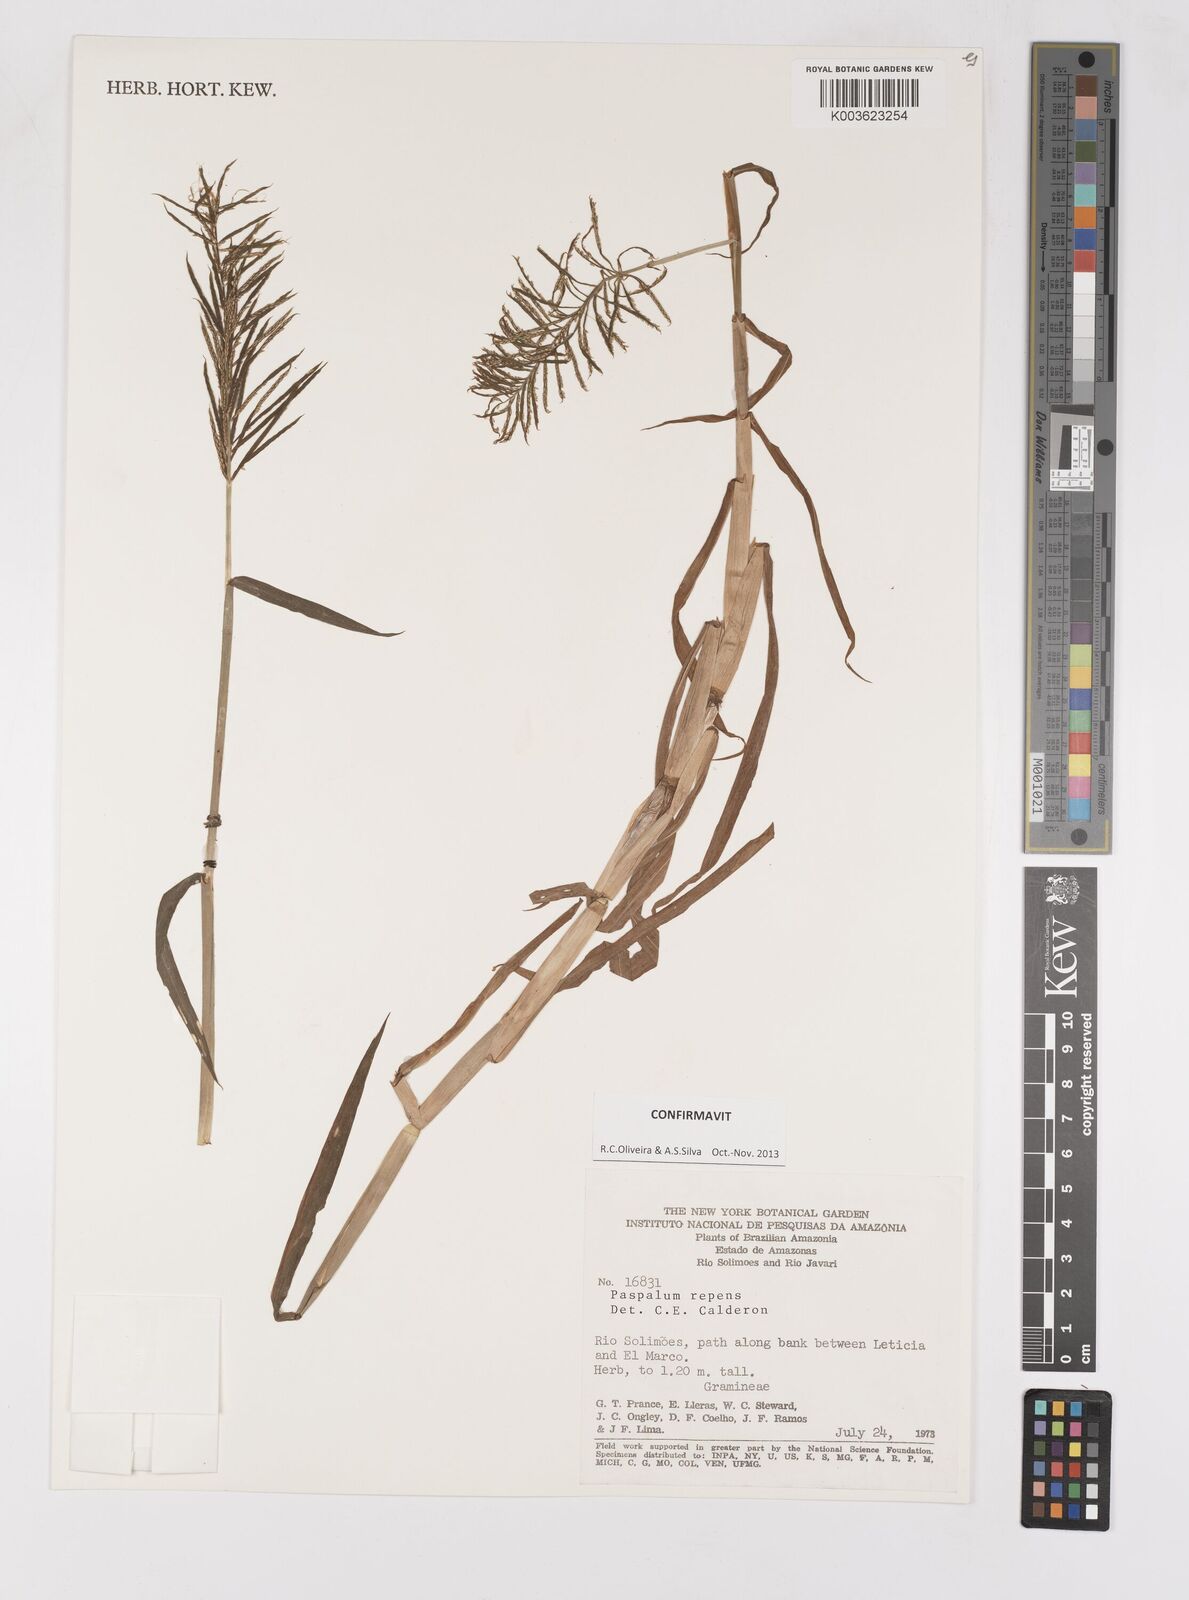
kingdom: Plantae
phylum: Tracheophyta
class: Liliopsida
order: Poales
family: Poaceae
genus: Paspalum
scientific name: Paspalum repens
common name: Water paspalum
